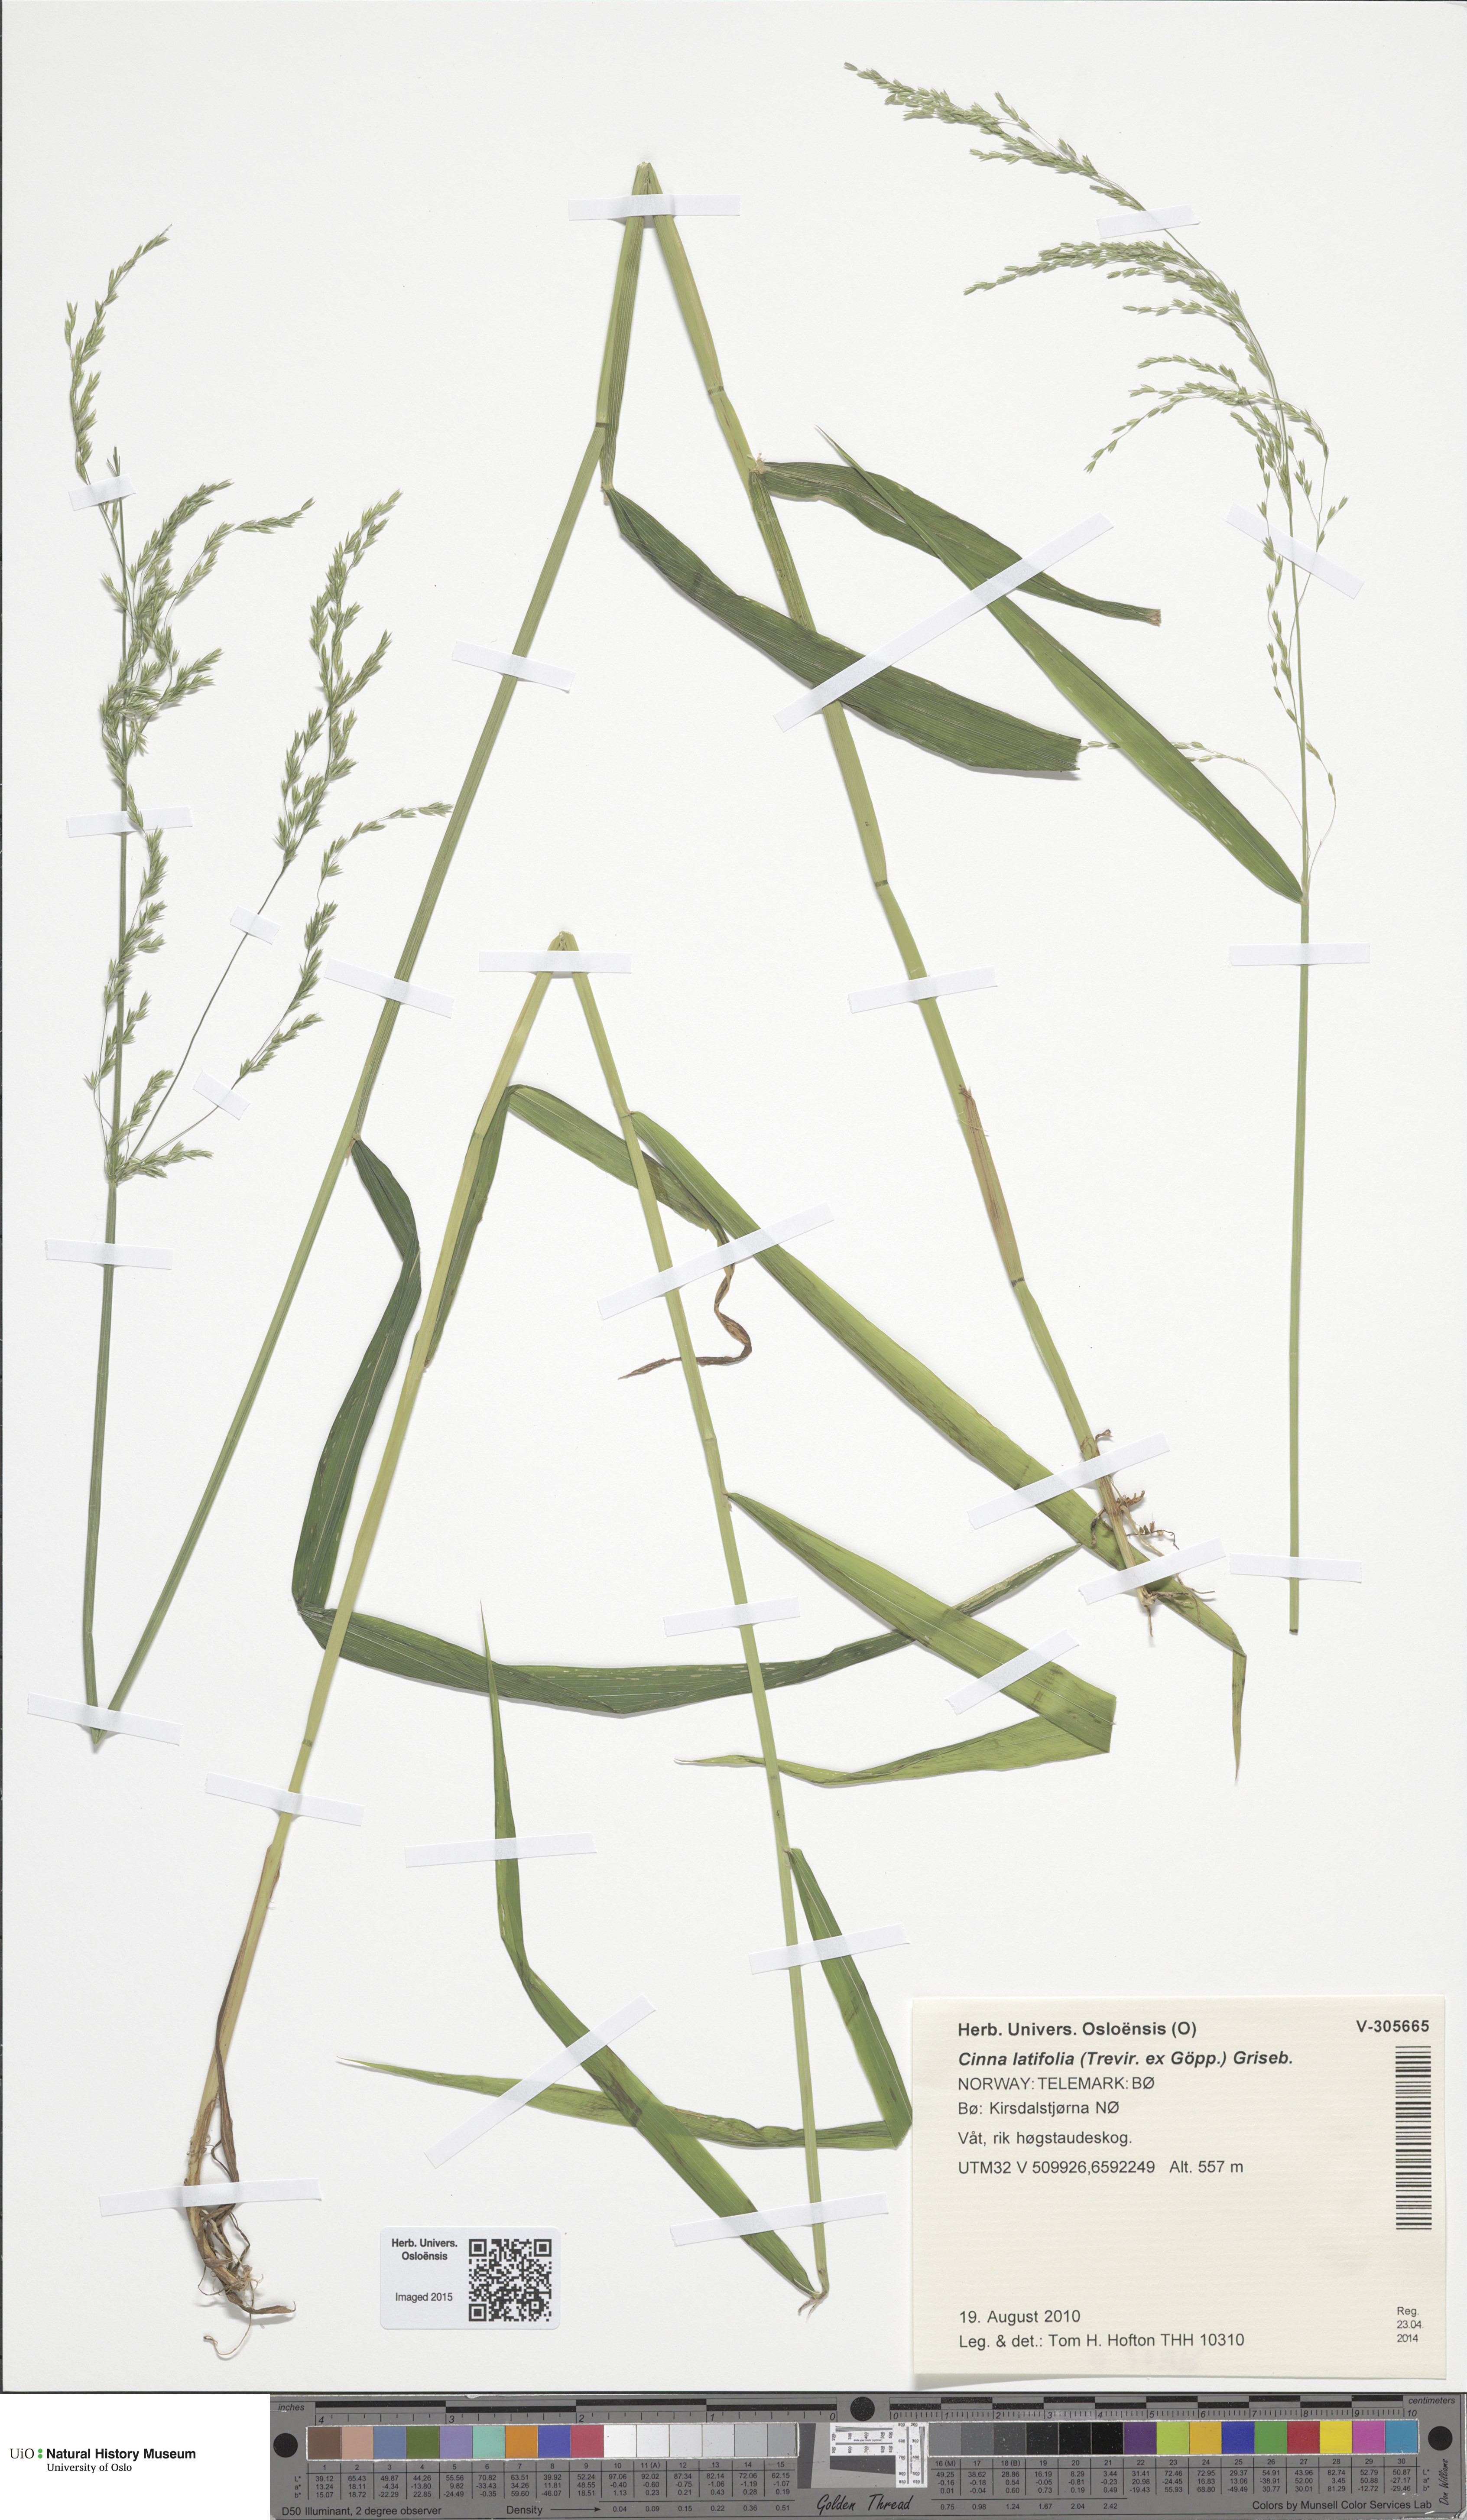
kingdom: Plantae
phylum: Tracheophyta
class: Liliopsida
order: Poales
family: Poaceae
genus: Cinna
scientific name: Cinna latifolia
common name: Drooping woodreed
